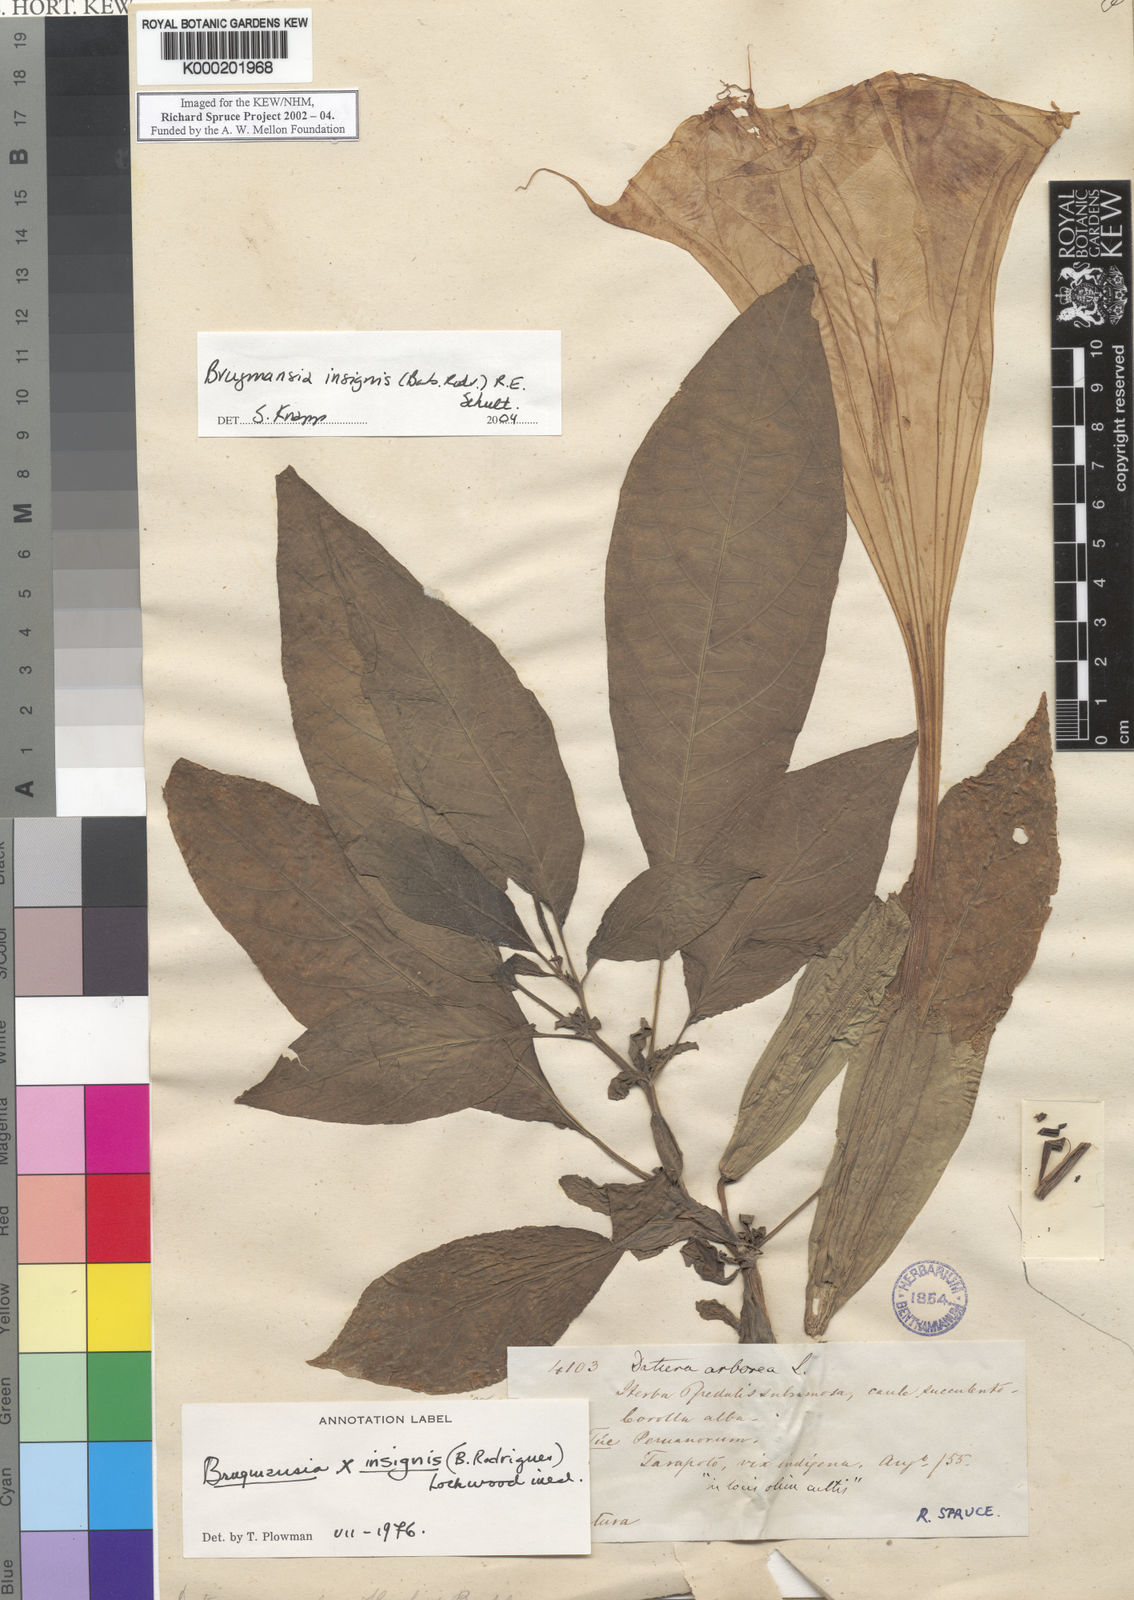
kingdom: Plantae
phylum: Tracheophyta
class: Magnoliopsida
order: Solanales
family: Solanaceae
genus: Brugmansia
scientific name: Brugmansia insignis
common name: Pink angel's-trumpet
